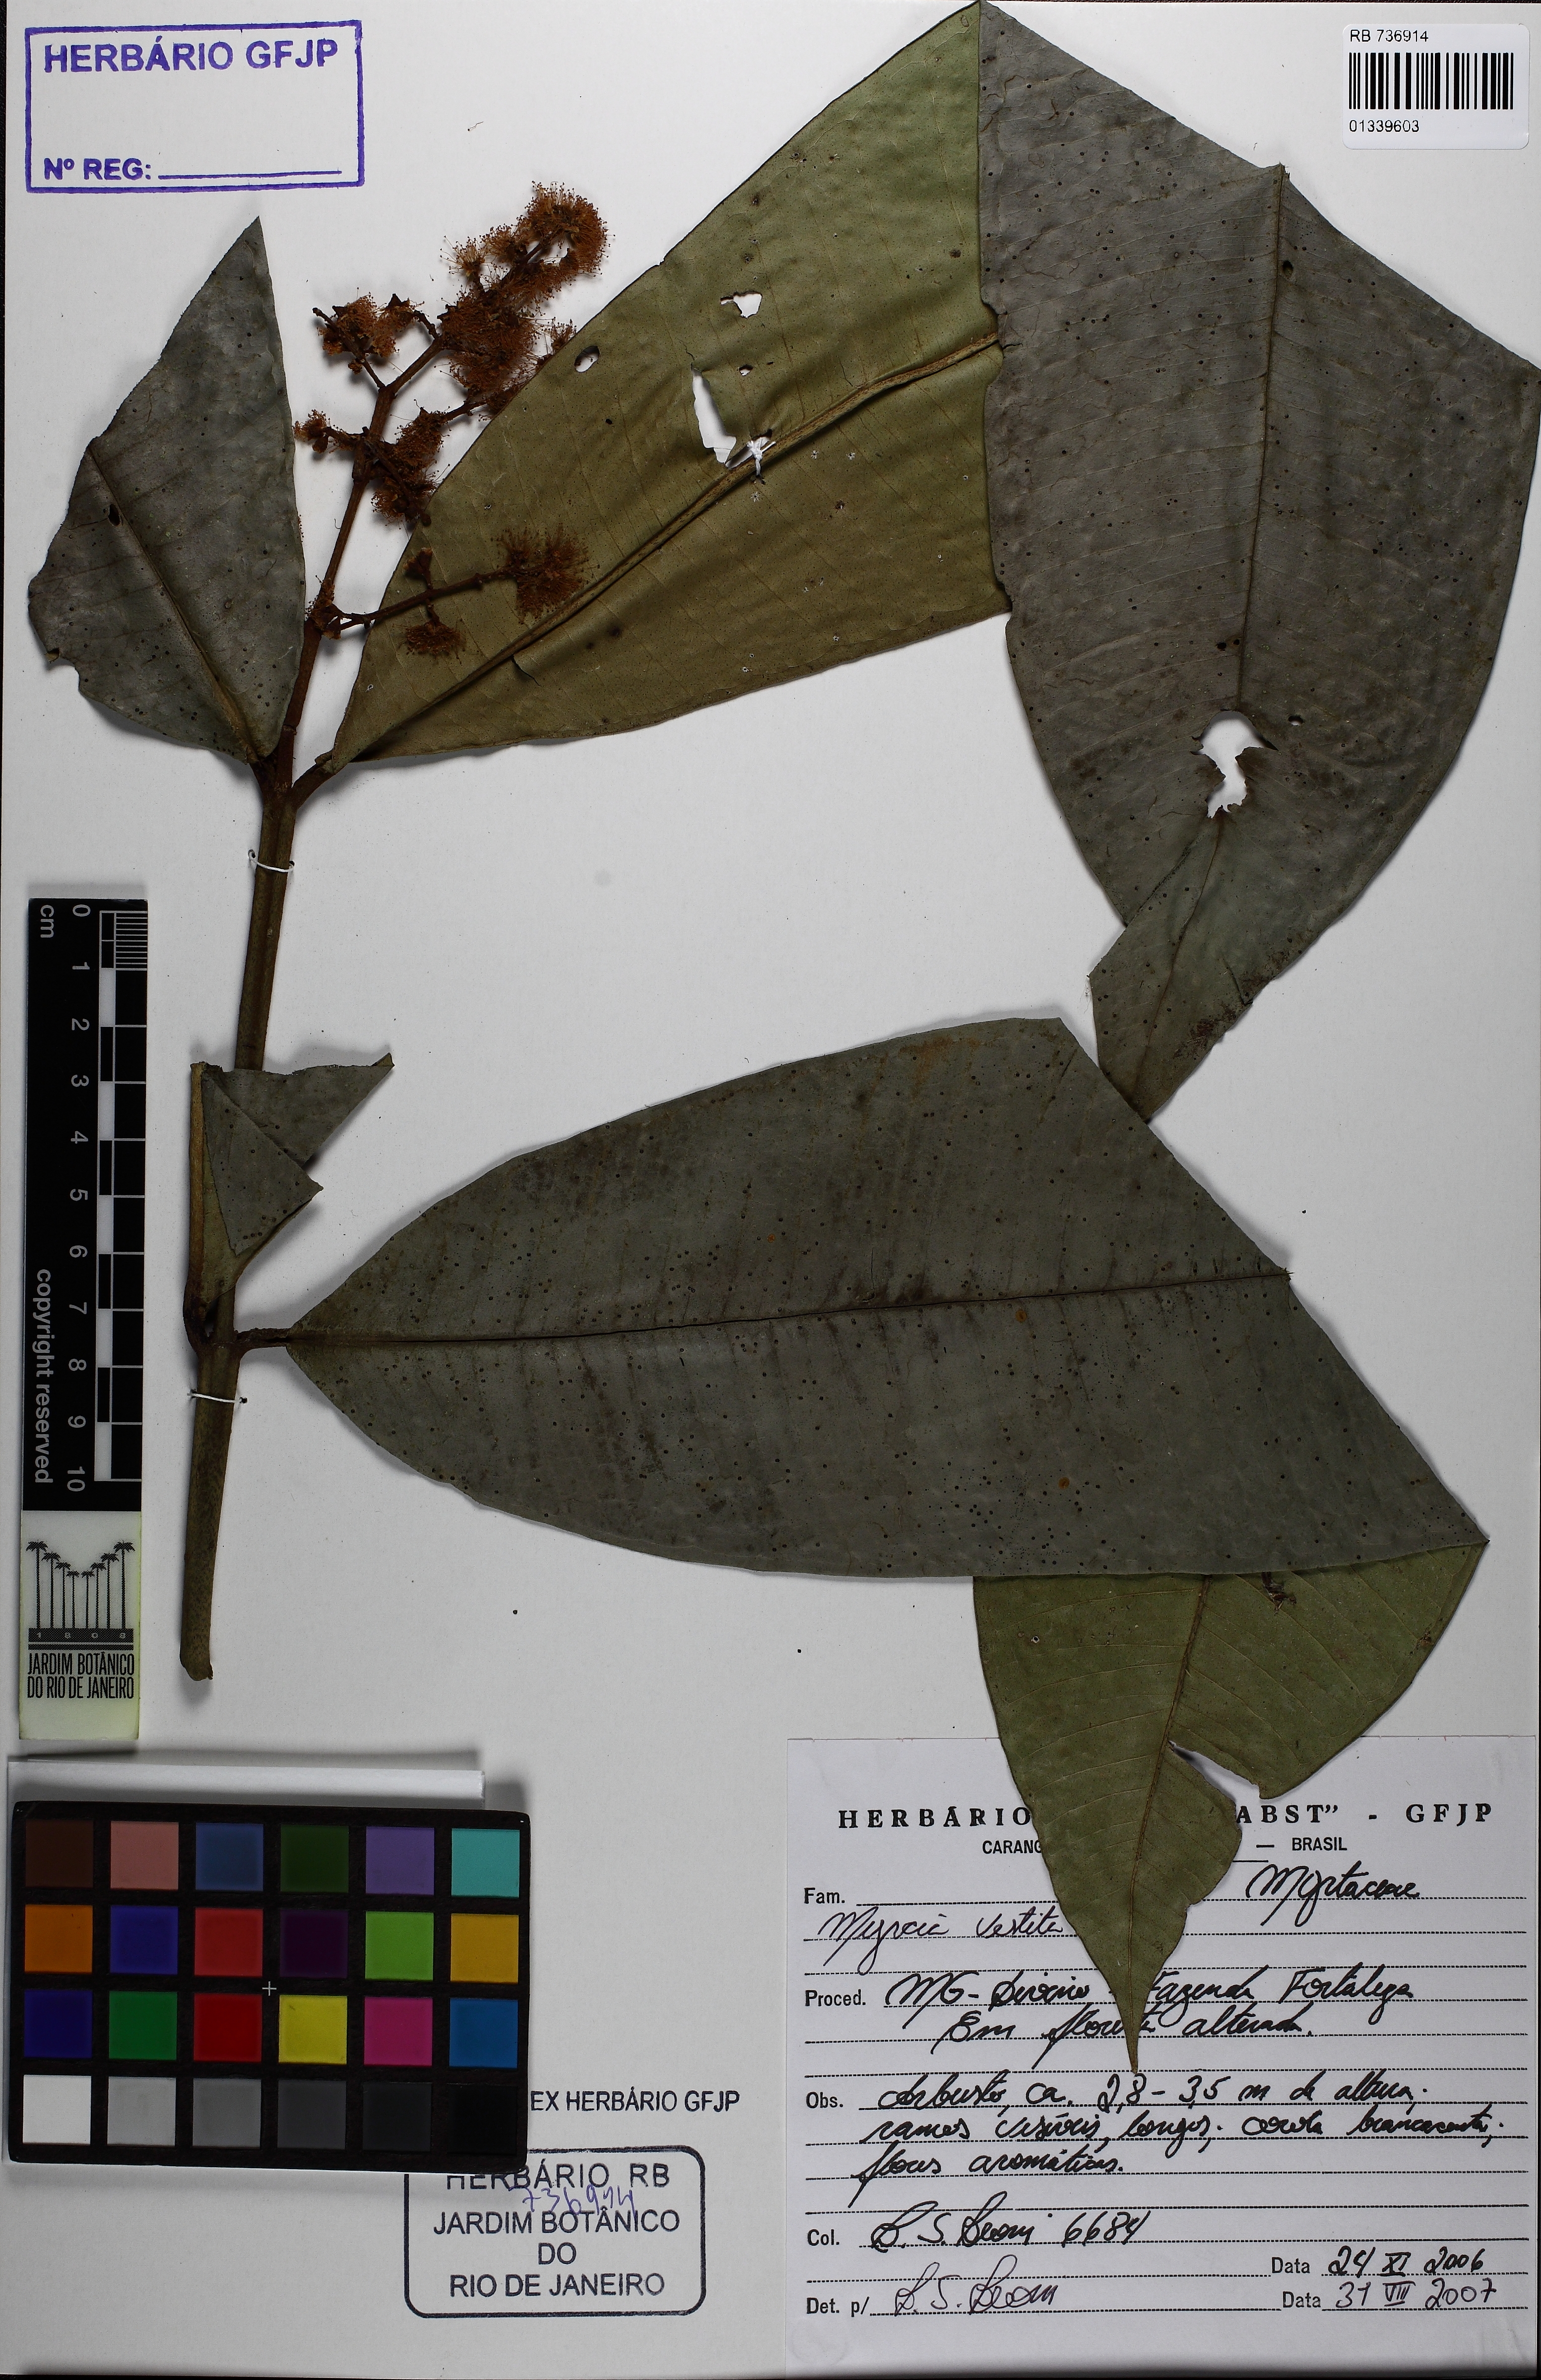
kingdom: Plantae
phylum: Tracheophyta
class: Magnoliopsida
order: Myrtales
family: Myrtaceae
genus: Myrcia
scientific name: Myrcia teuscheriana
